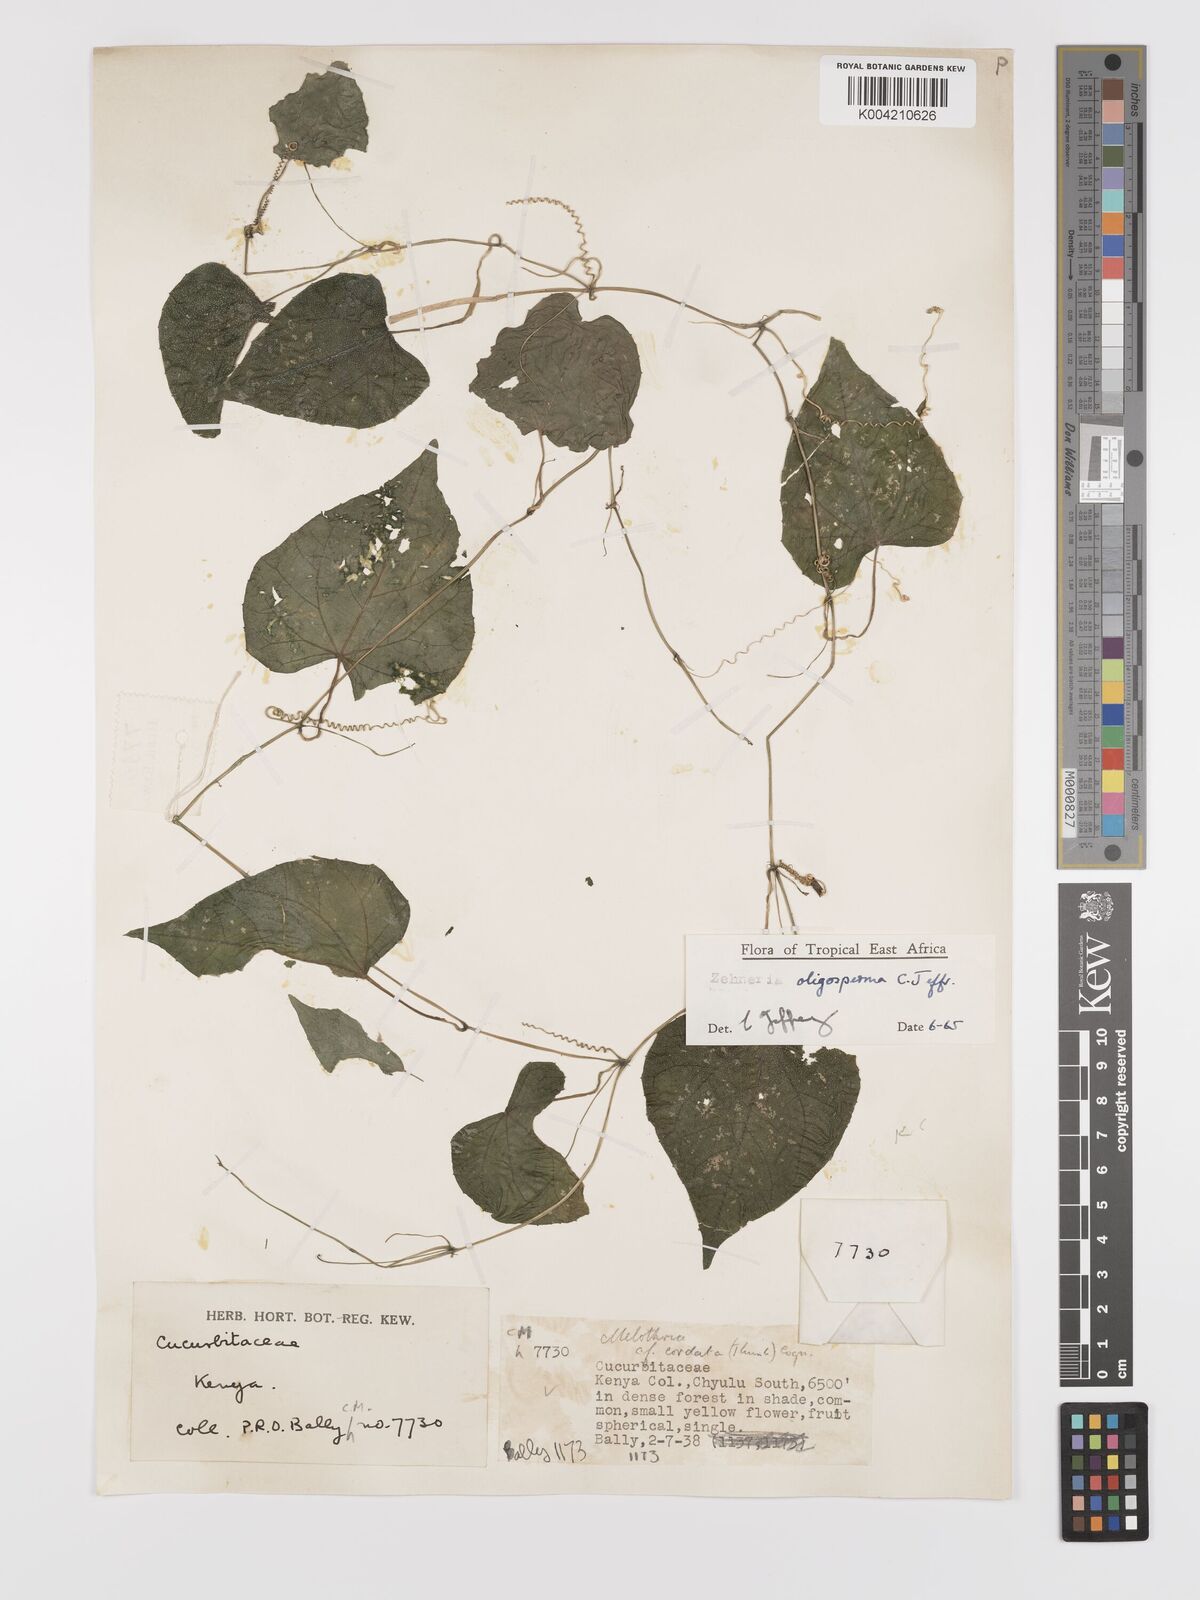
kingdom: Plantae
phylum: Tracheophyta
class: Magnoliopsida
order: Cucurbitales
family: Cucurbitaceae
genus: Zehneria
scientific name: Zehneria oligosperma
